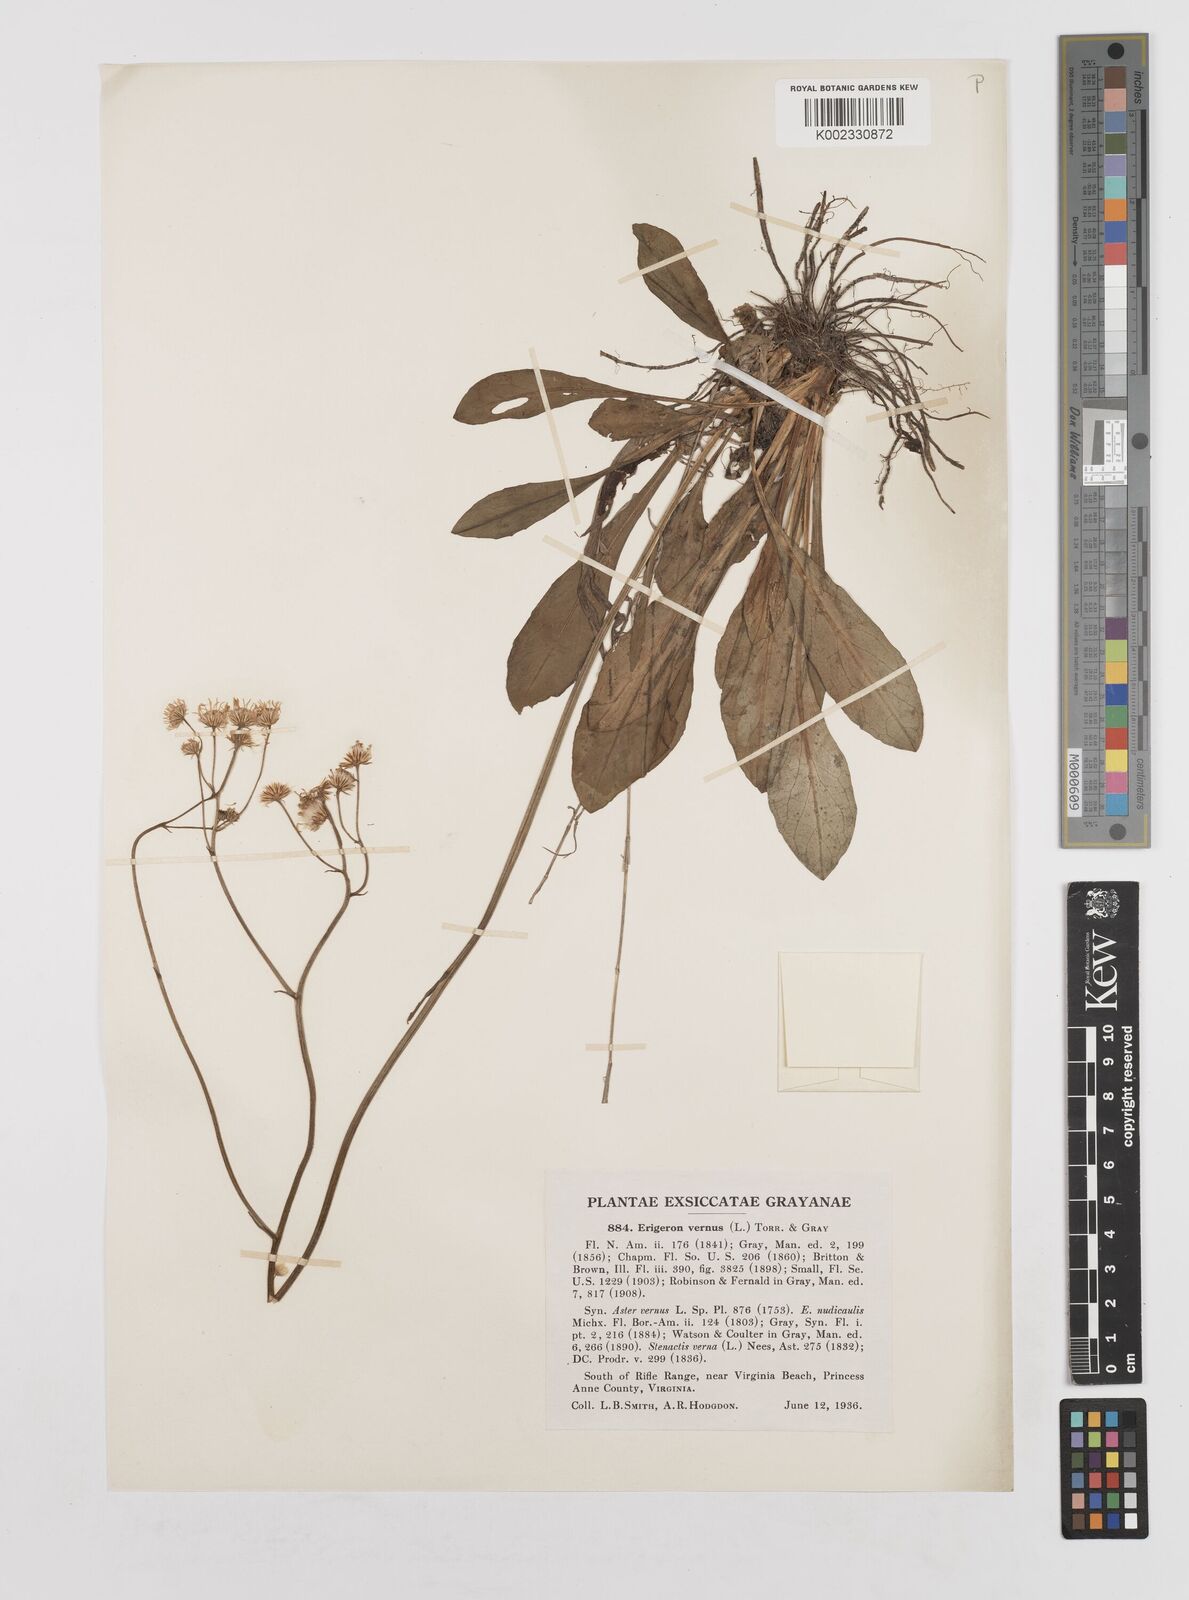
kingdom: Plantae
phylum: Tracheophyta
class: Magnoliopsida
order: Asterales
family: Asteraceae
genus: Erigeron
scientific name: Erigeron vernus
